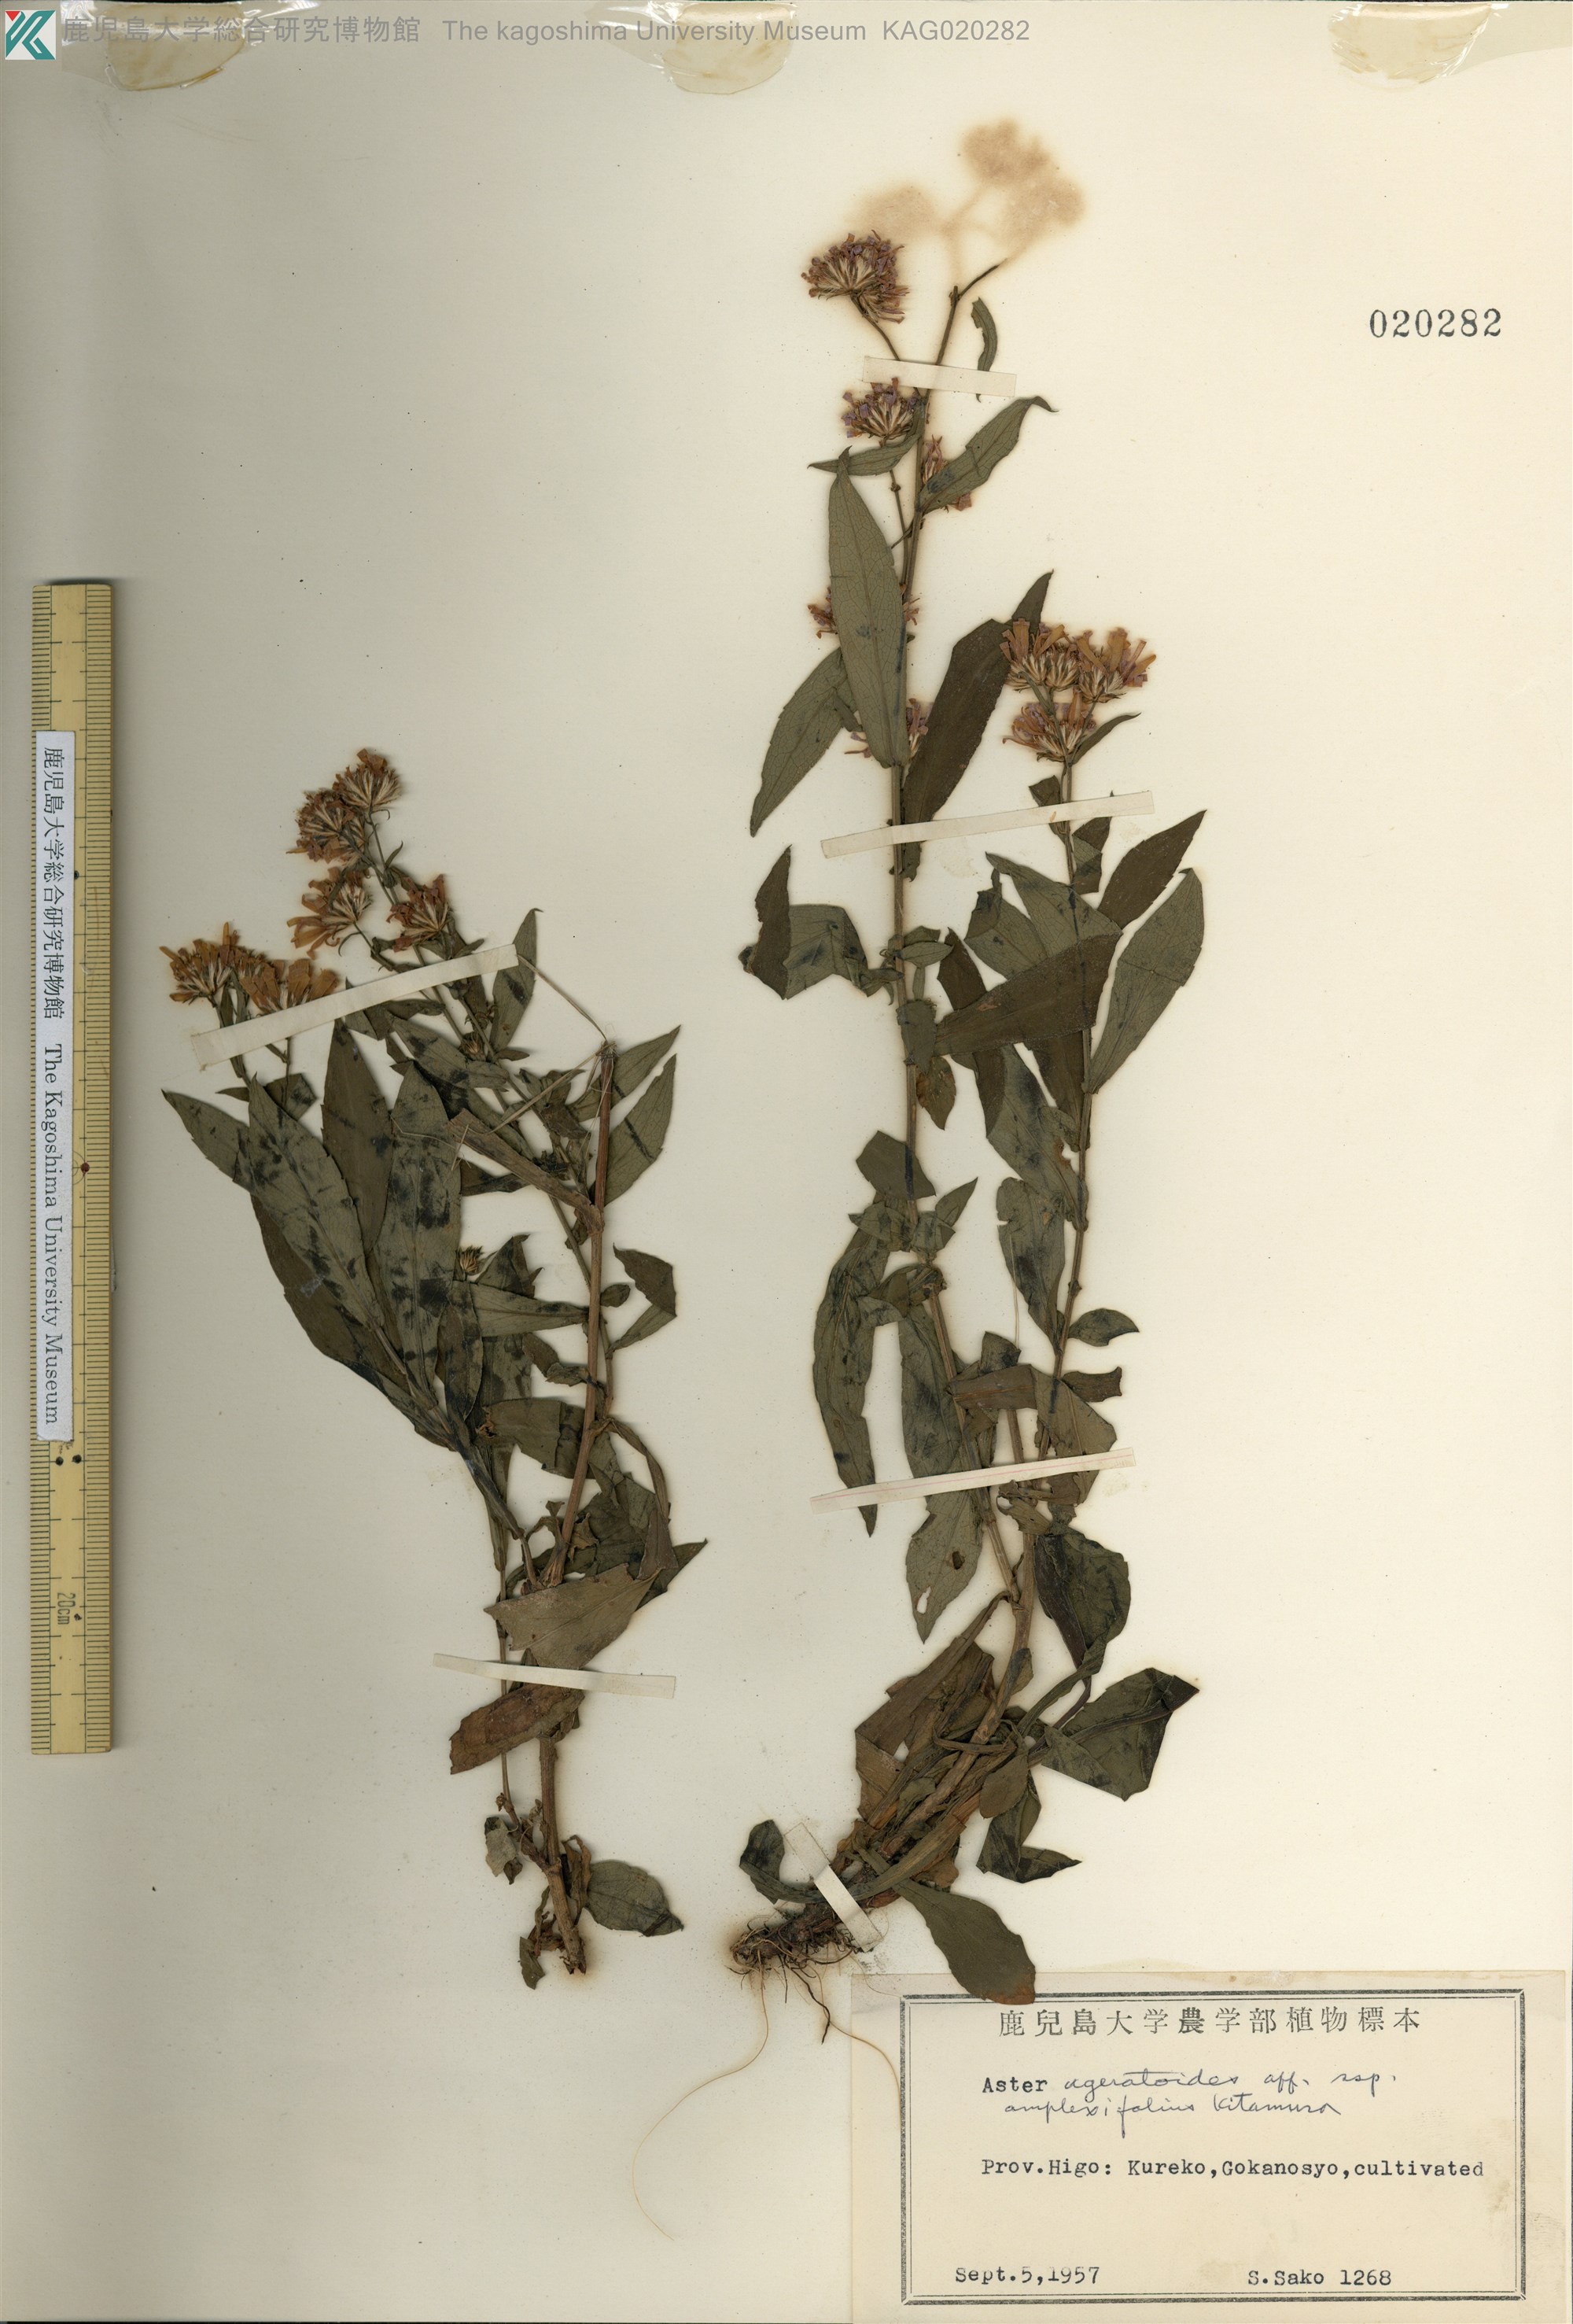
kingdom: Plantae
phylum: Tracheophyta
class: Magnoliopsida
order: Asterales
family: Asteraceae
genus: Aster
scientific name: Aster semiamplexicaulis
